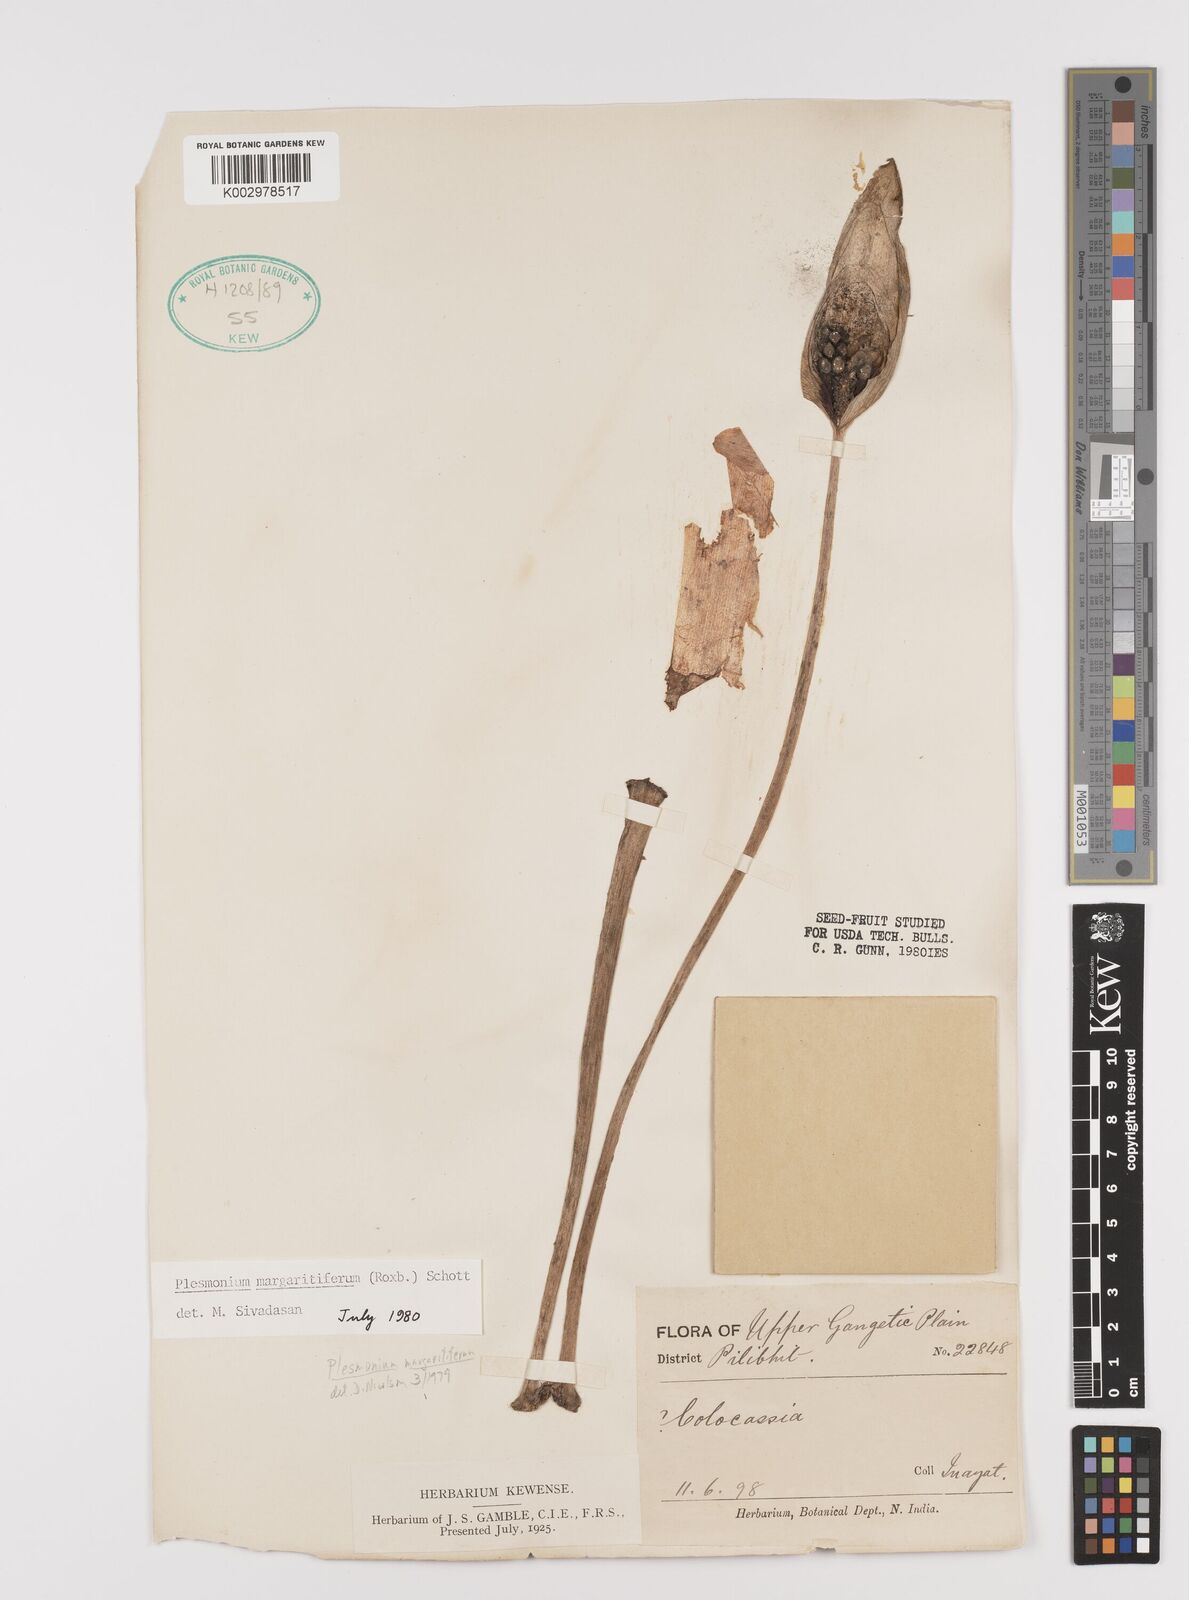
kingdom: Plantae
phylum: Tracheophyta
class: Liliopsida
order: Alismatales
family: Araceae
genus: Amorphophallus
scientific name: Amorphophallus margaritifer
